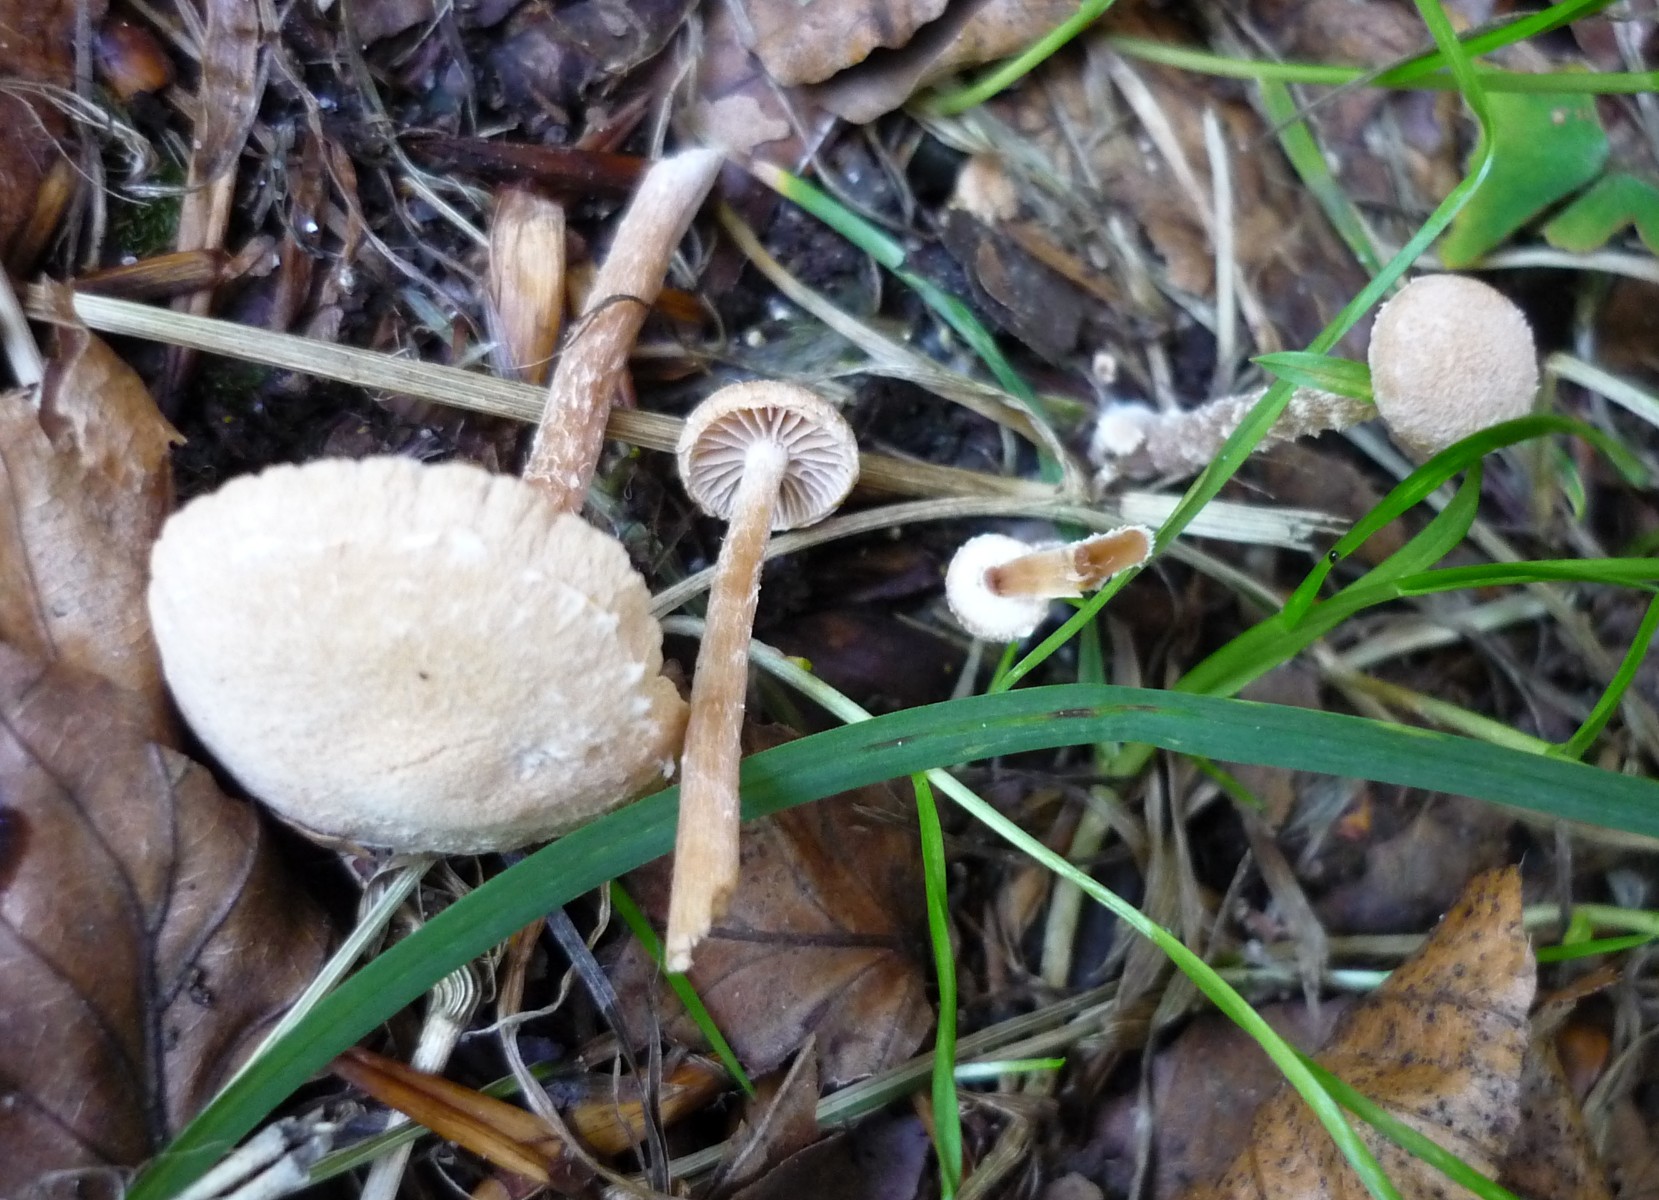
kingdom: Fungi
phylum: Basidiomycota
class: Agaricomycetes
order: Agaricales
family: Tubariaceae
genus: Tubaria
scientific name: Tubaria conspersa
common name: bleg fnughat
